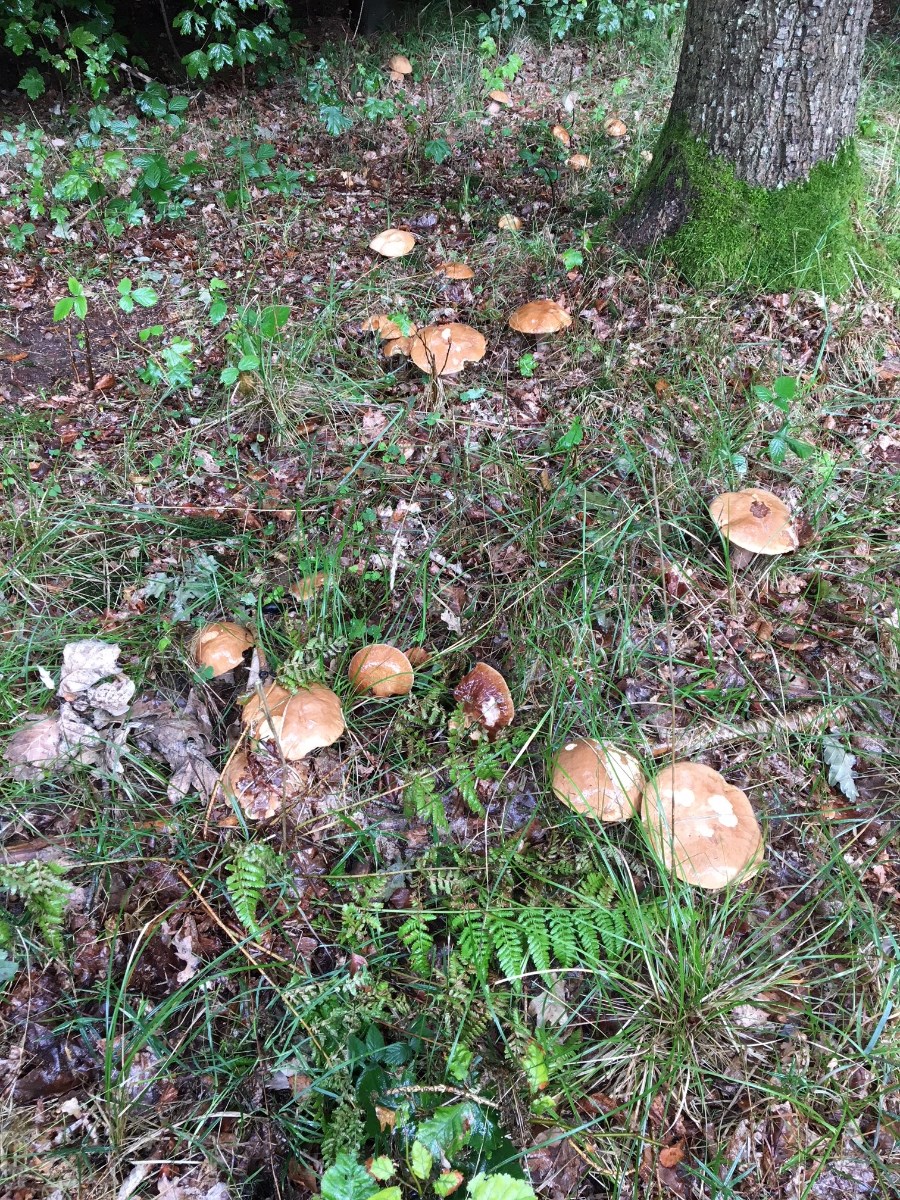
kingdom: Fungi
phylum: Basidiomycota
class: Agaricomycetes
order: Boletales
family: Boletaceae
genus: Boletus
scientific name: Boletus edulis
